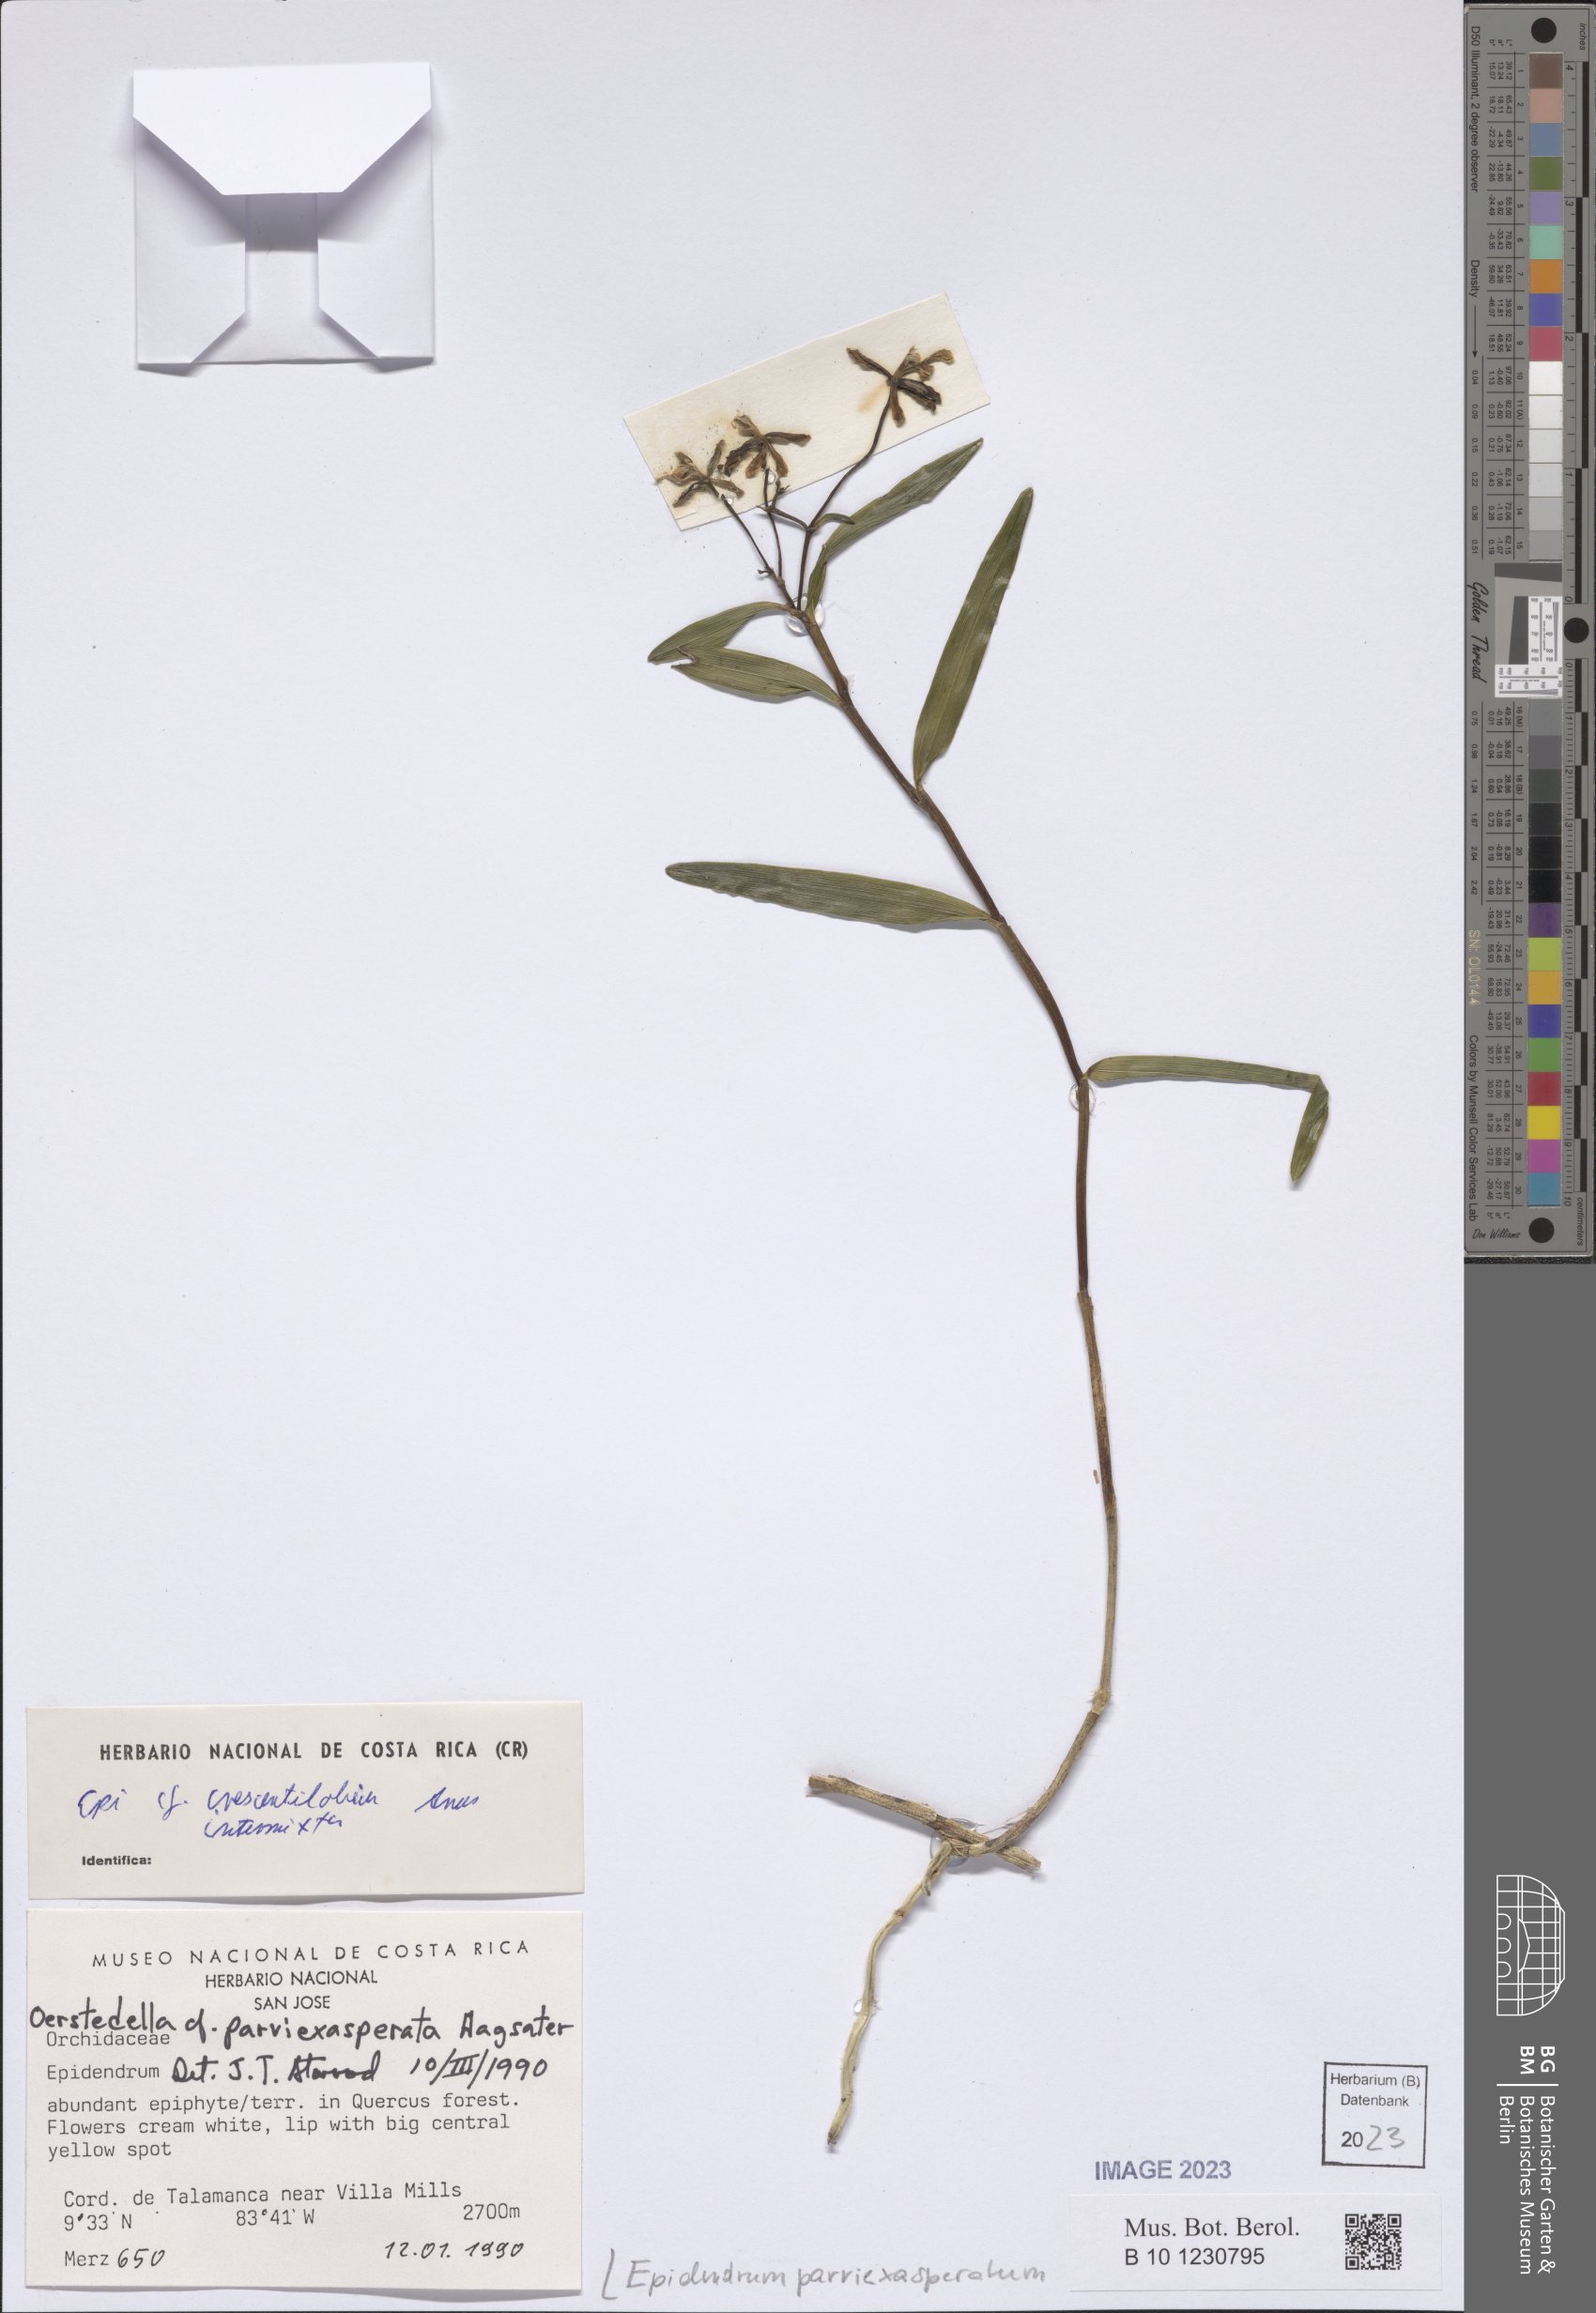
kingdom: Plantae
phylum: Tracheophyta
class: Liliopsida
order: Asparagales
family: Orchidaceae
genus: Epidendrum
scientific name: Epidendrum parviexasperatum
